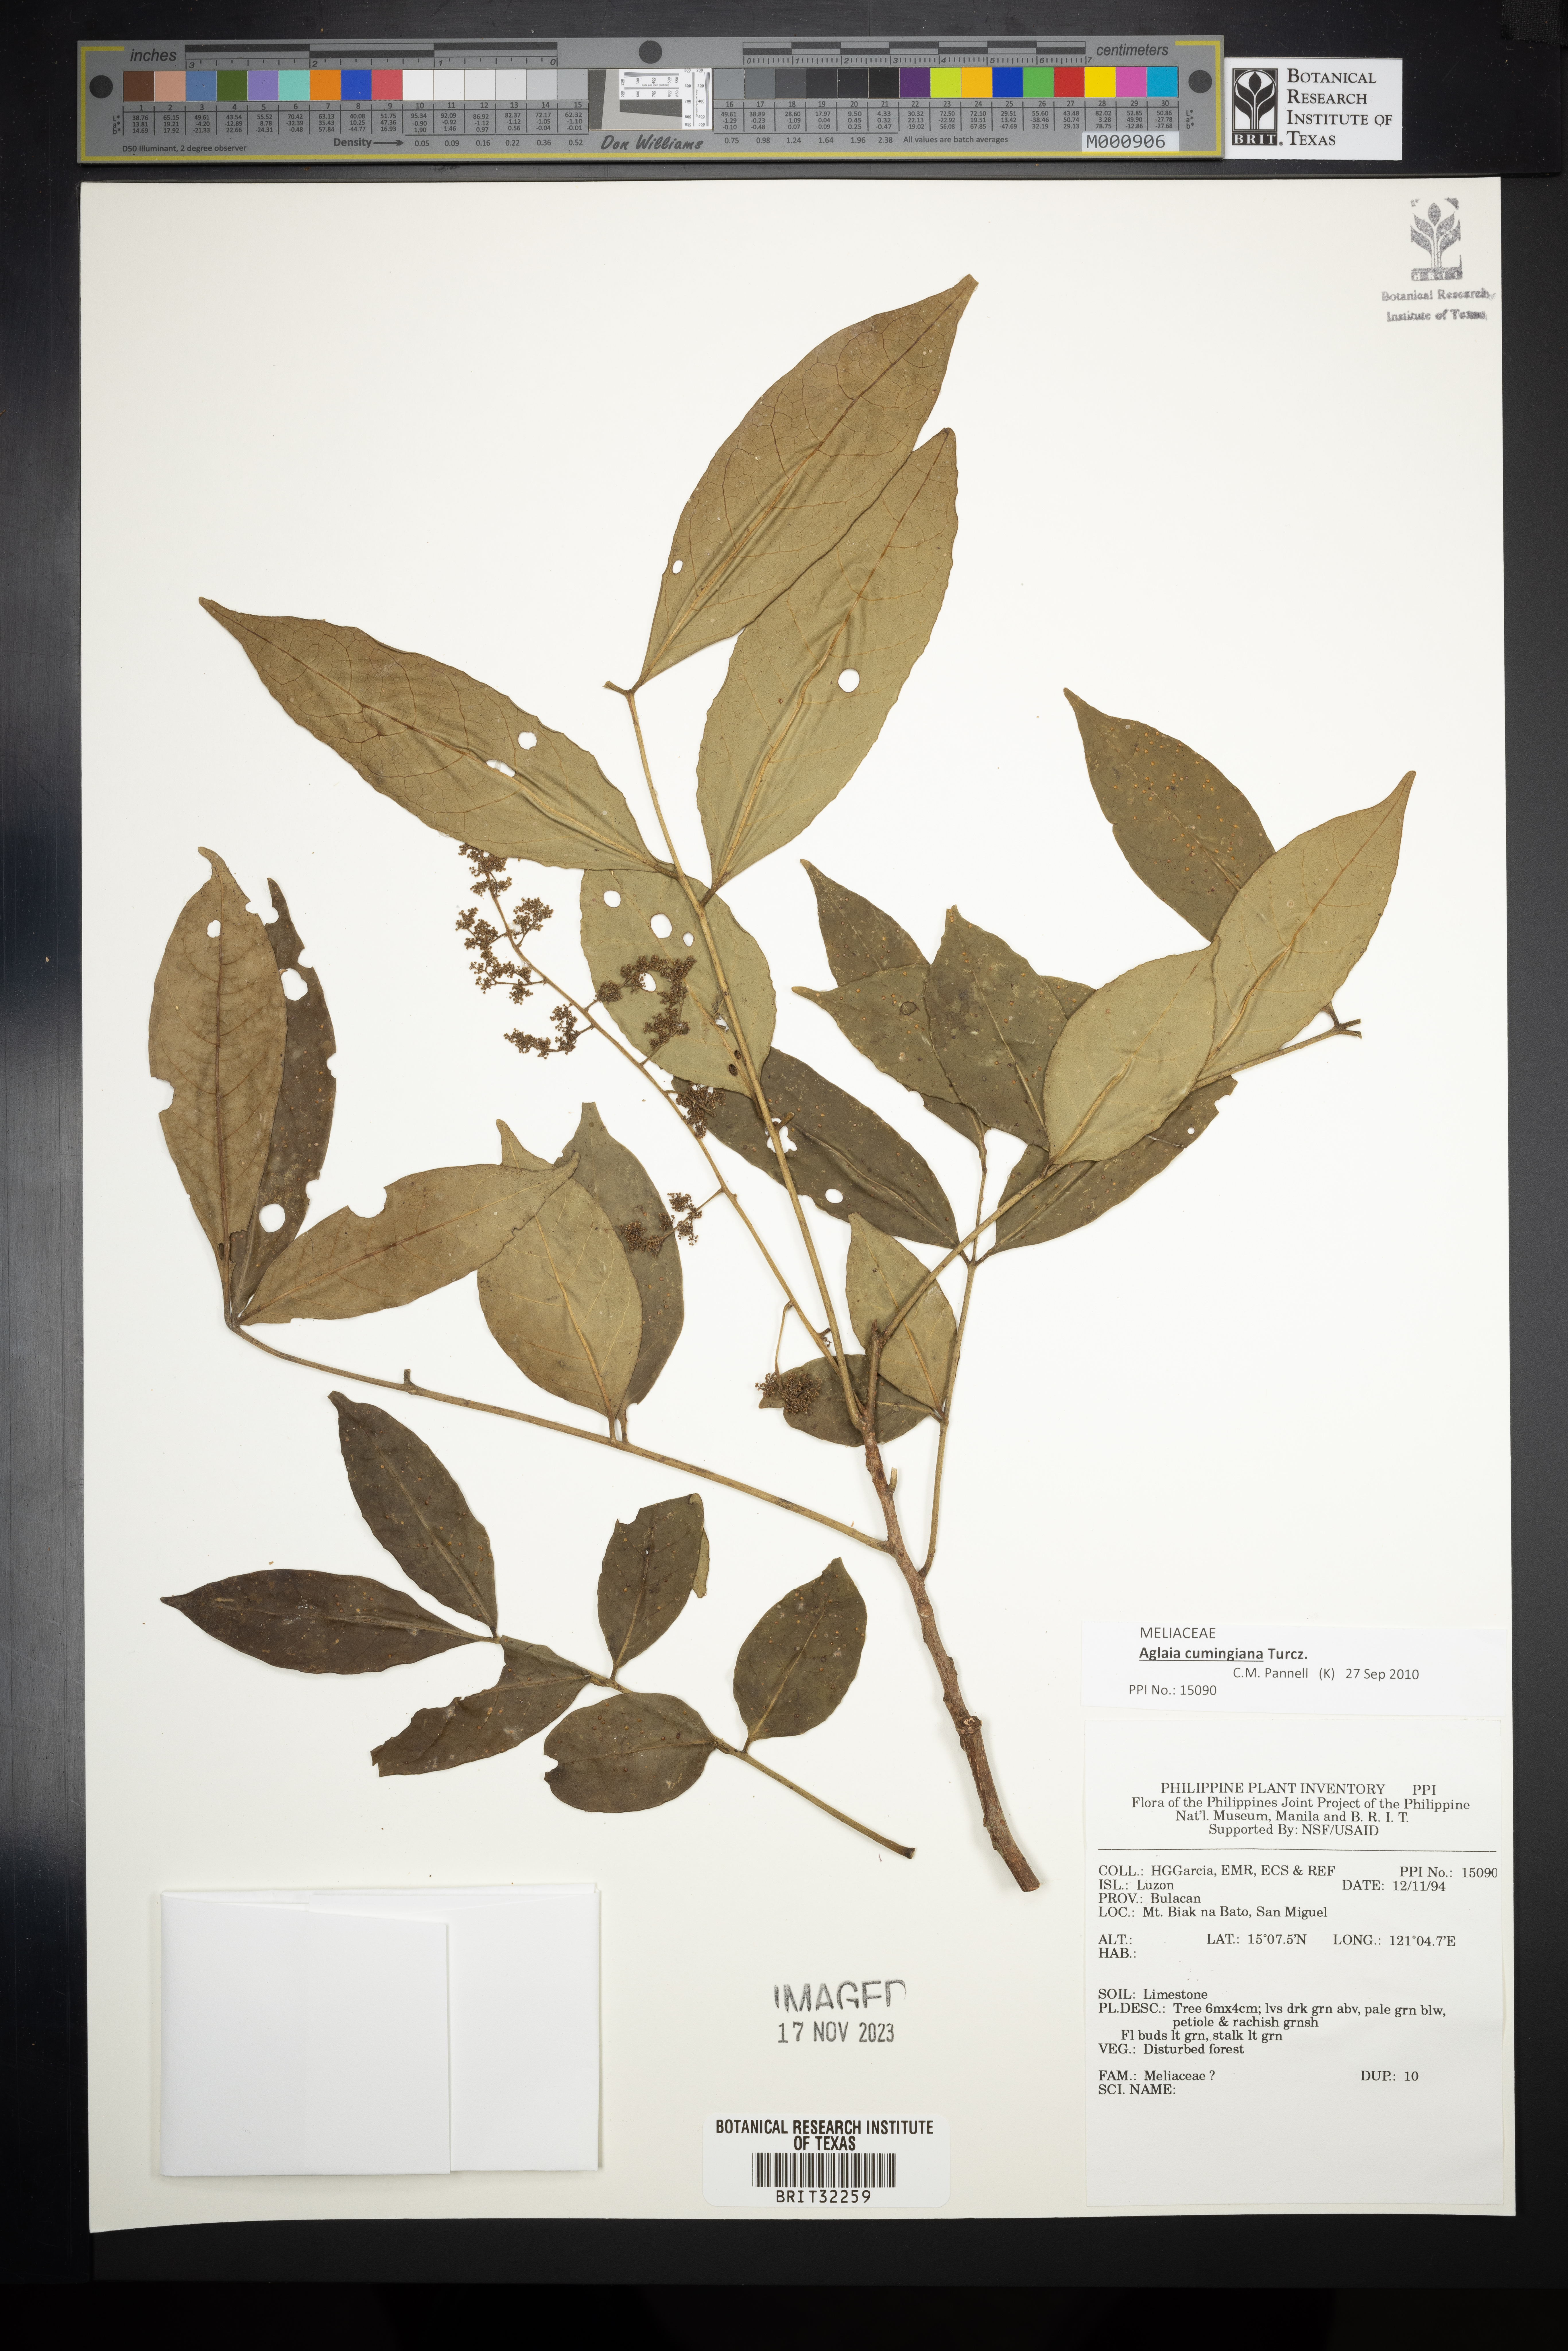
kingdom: Plantae
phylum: Tracheophyta
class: Magnoliopsida
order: Sapindales
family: Meliaceae
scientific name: Meliaceae
